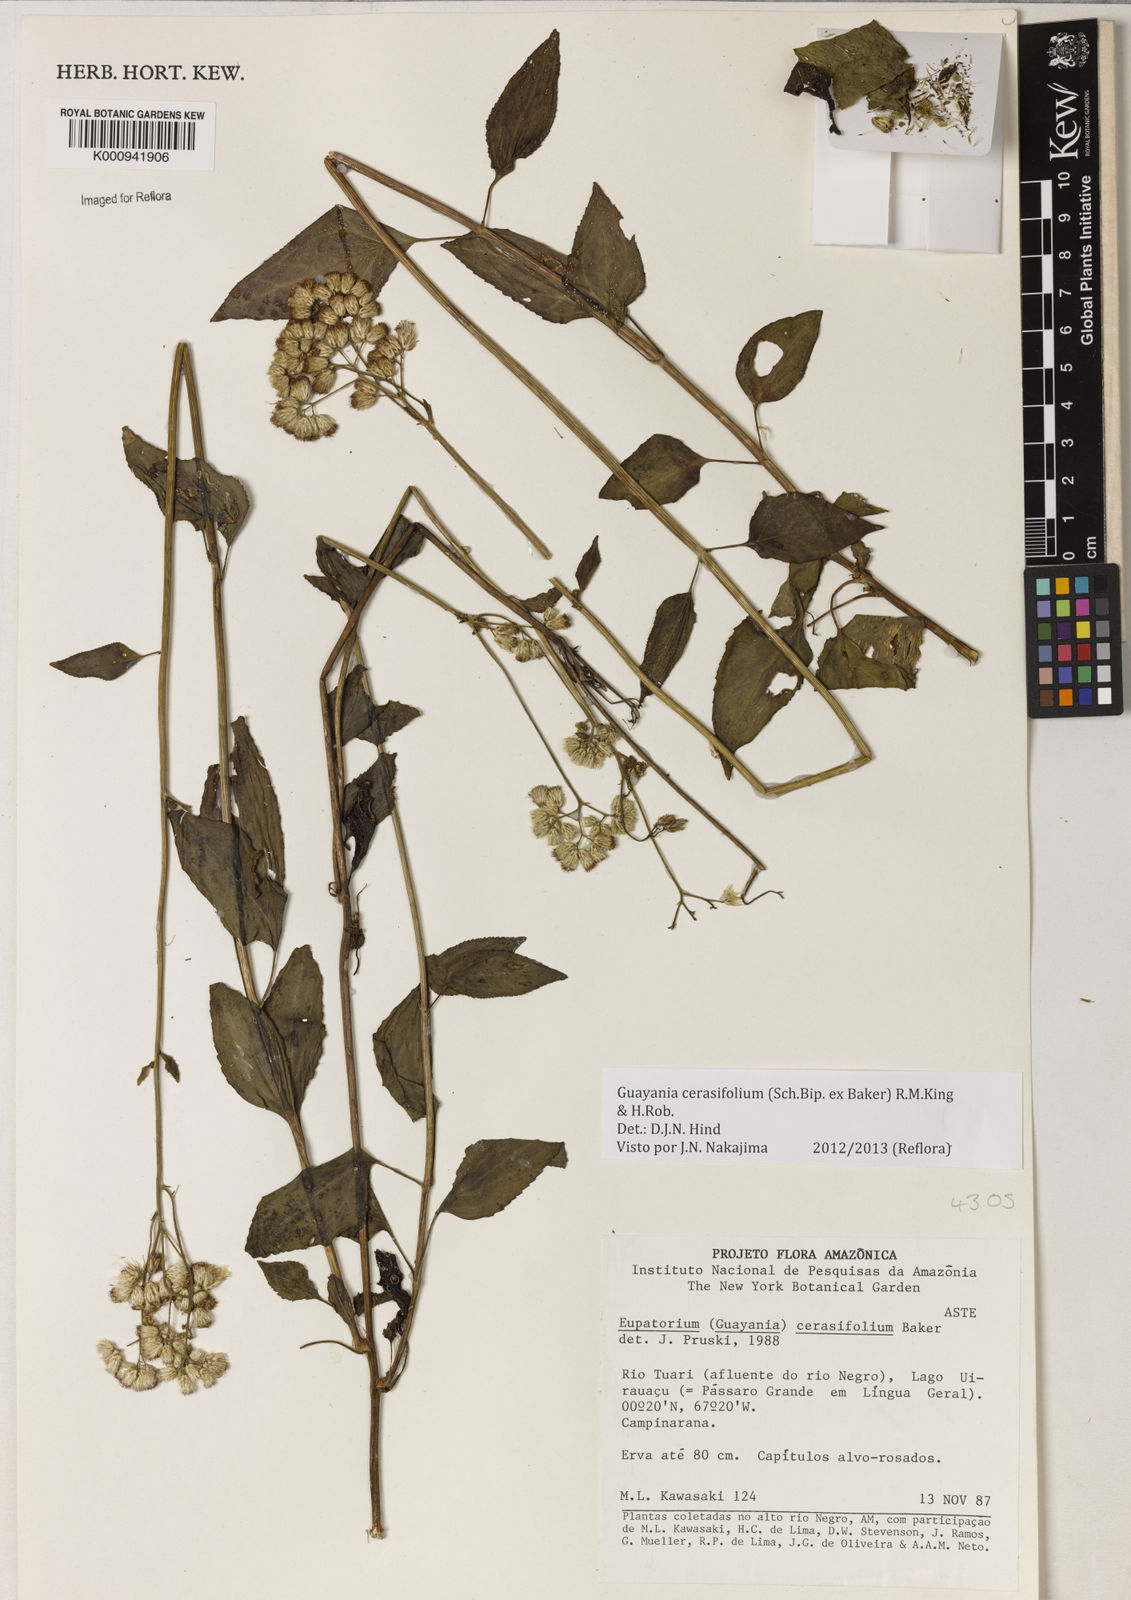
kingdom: Plantae
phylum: Tracheophyta
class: Magnoliopsida
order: Asterales
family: Asteraceae
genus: Guayania
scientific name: Guayania cerasifolia
